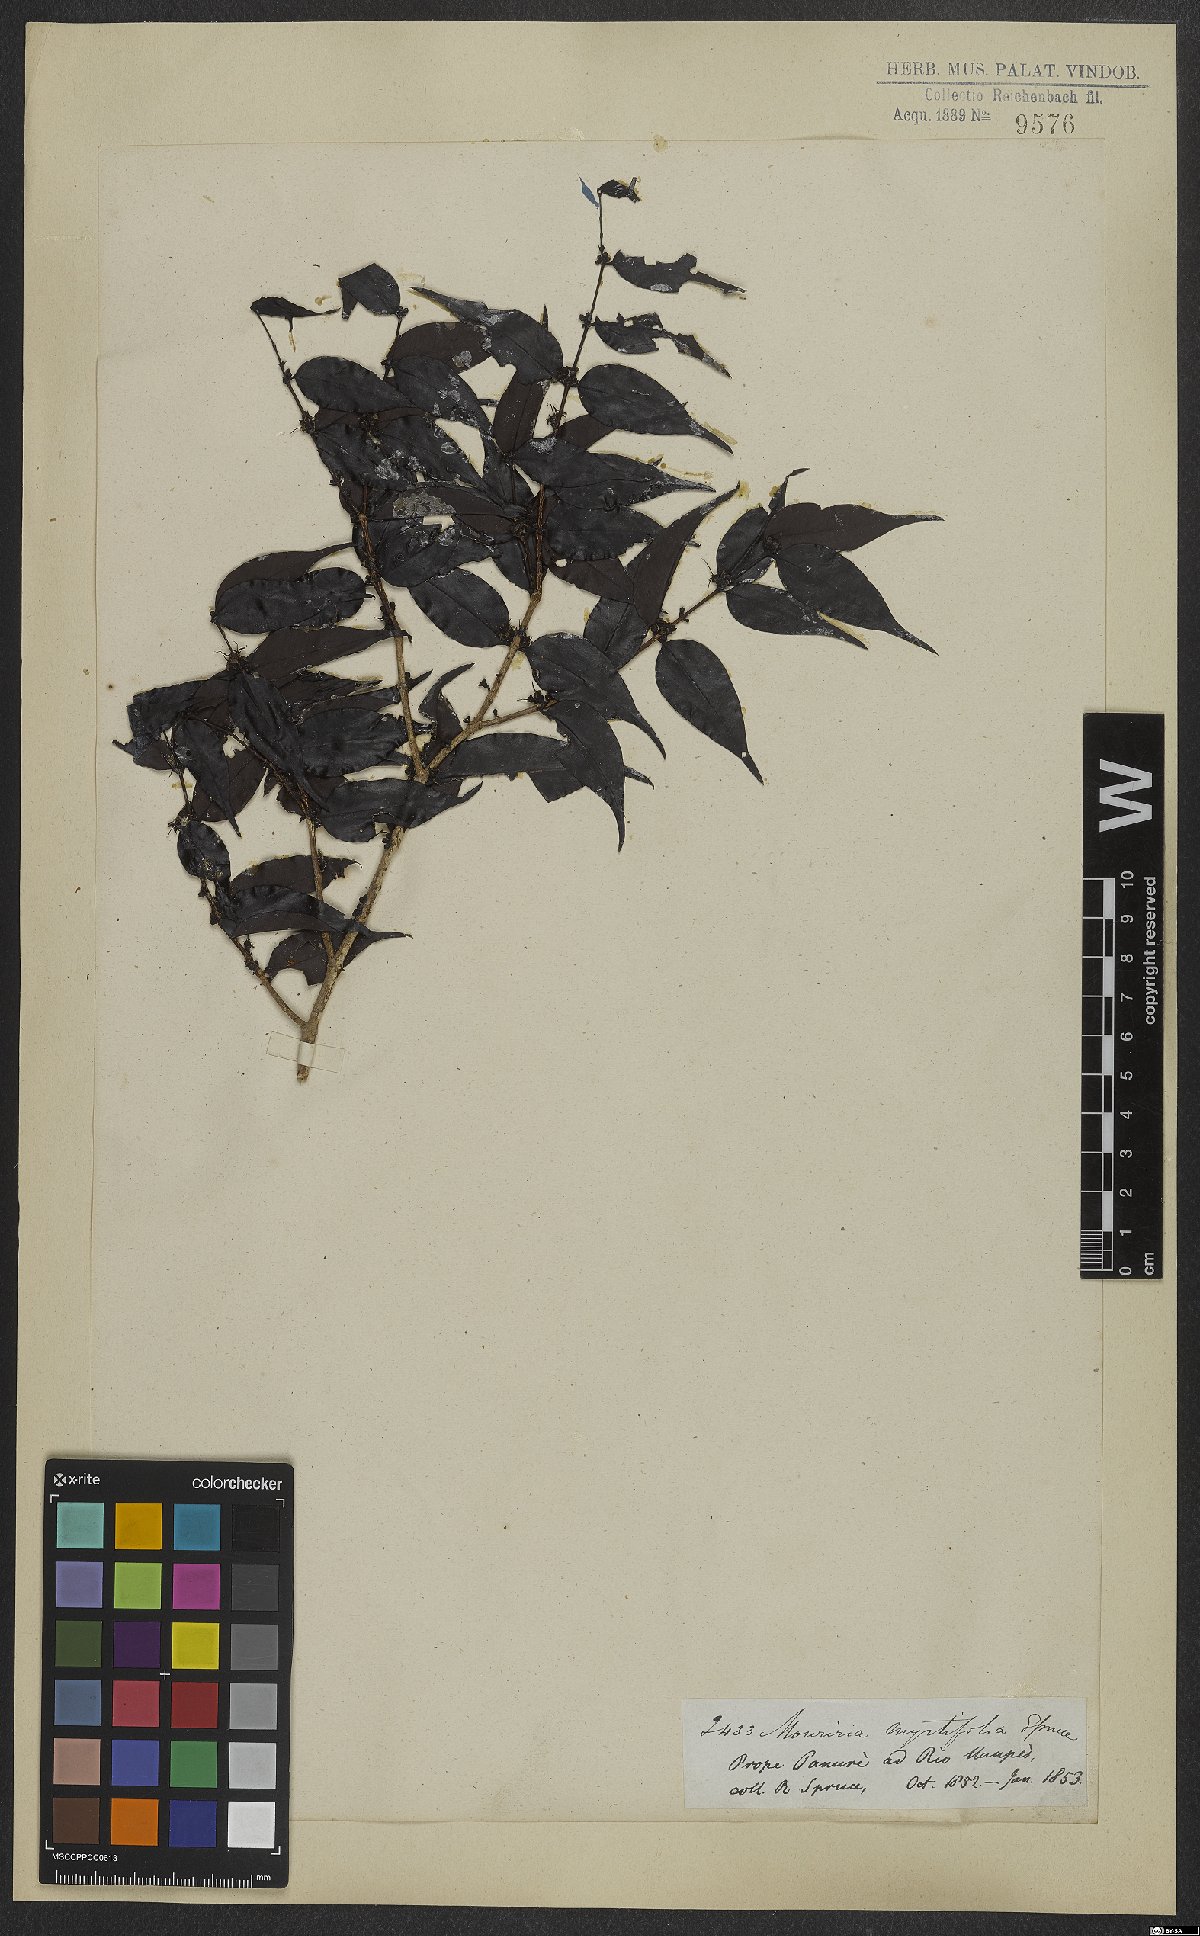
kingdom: Plantae
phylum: Tracheophyta
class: Magnoliopsida
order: Myrtales
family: Melastomataceae
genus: Mouriri
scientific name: Mouriri myrtifolia
